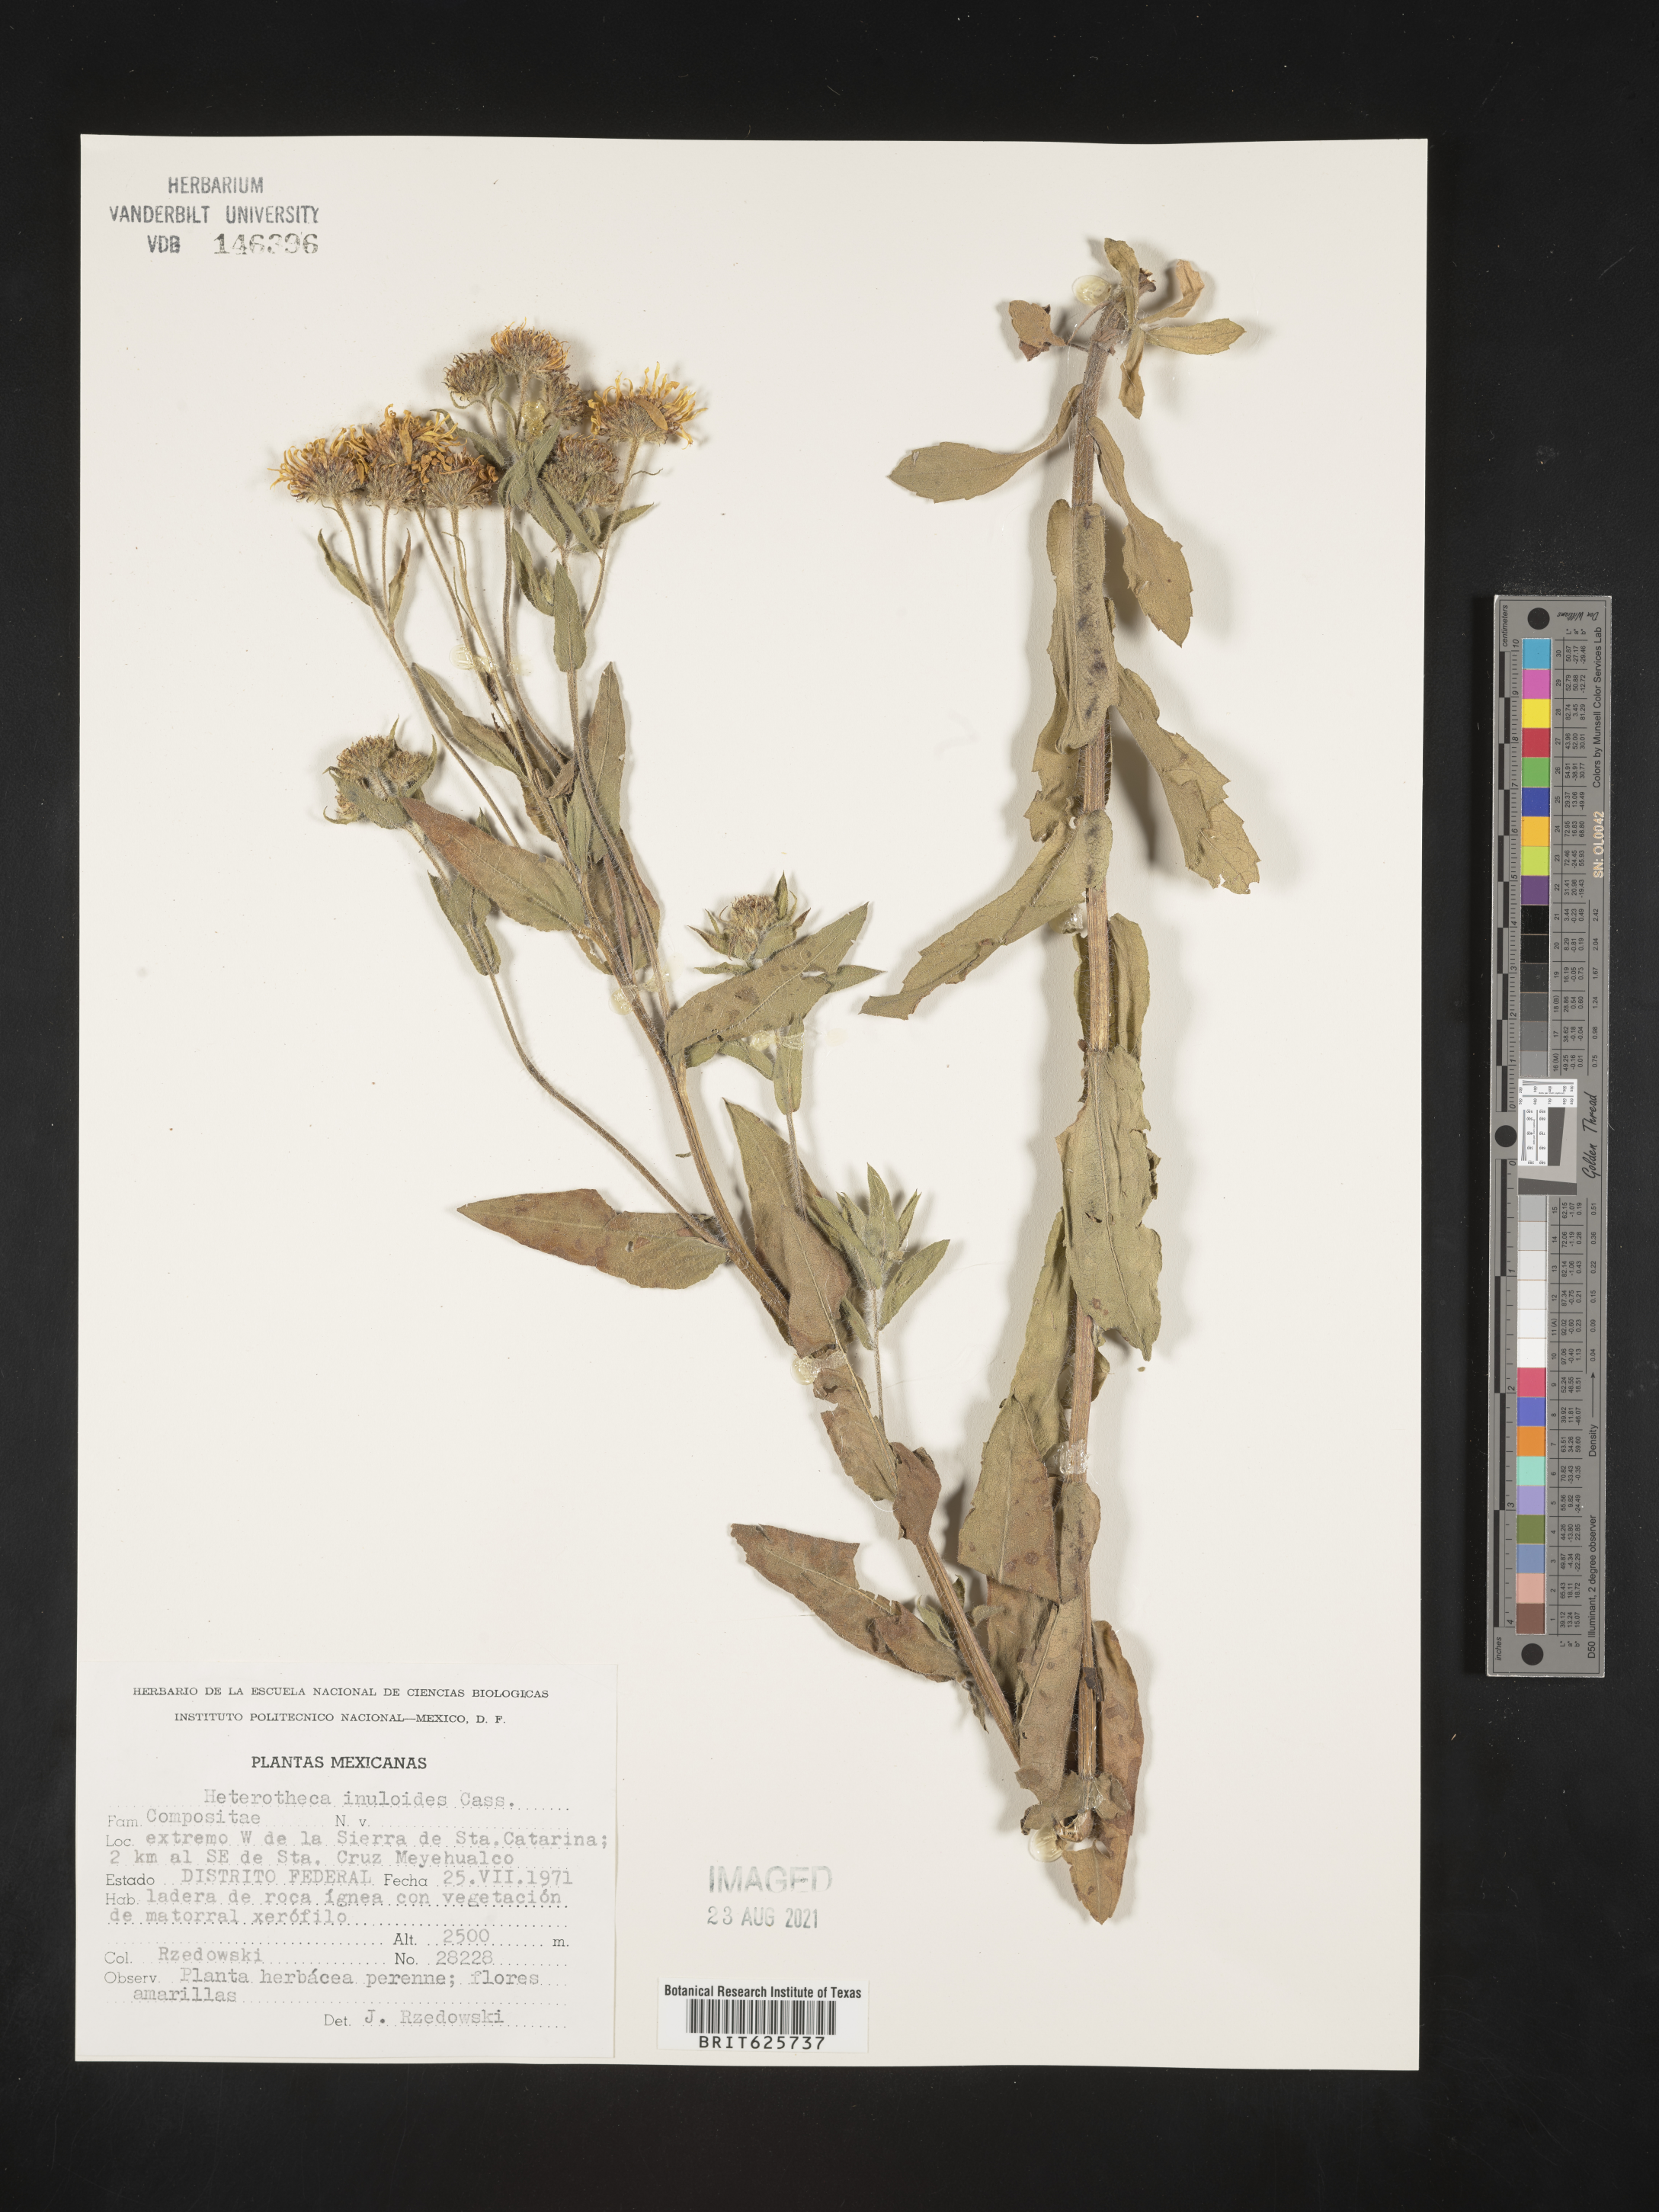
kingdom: Plantae
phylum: Tracheophyta
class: Magnoliopsida
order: Asterales
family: Asteraceae
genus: Heterotheca
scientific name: Heterotheca
